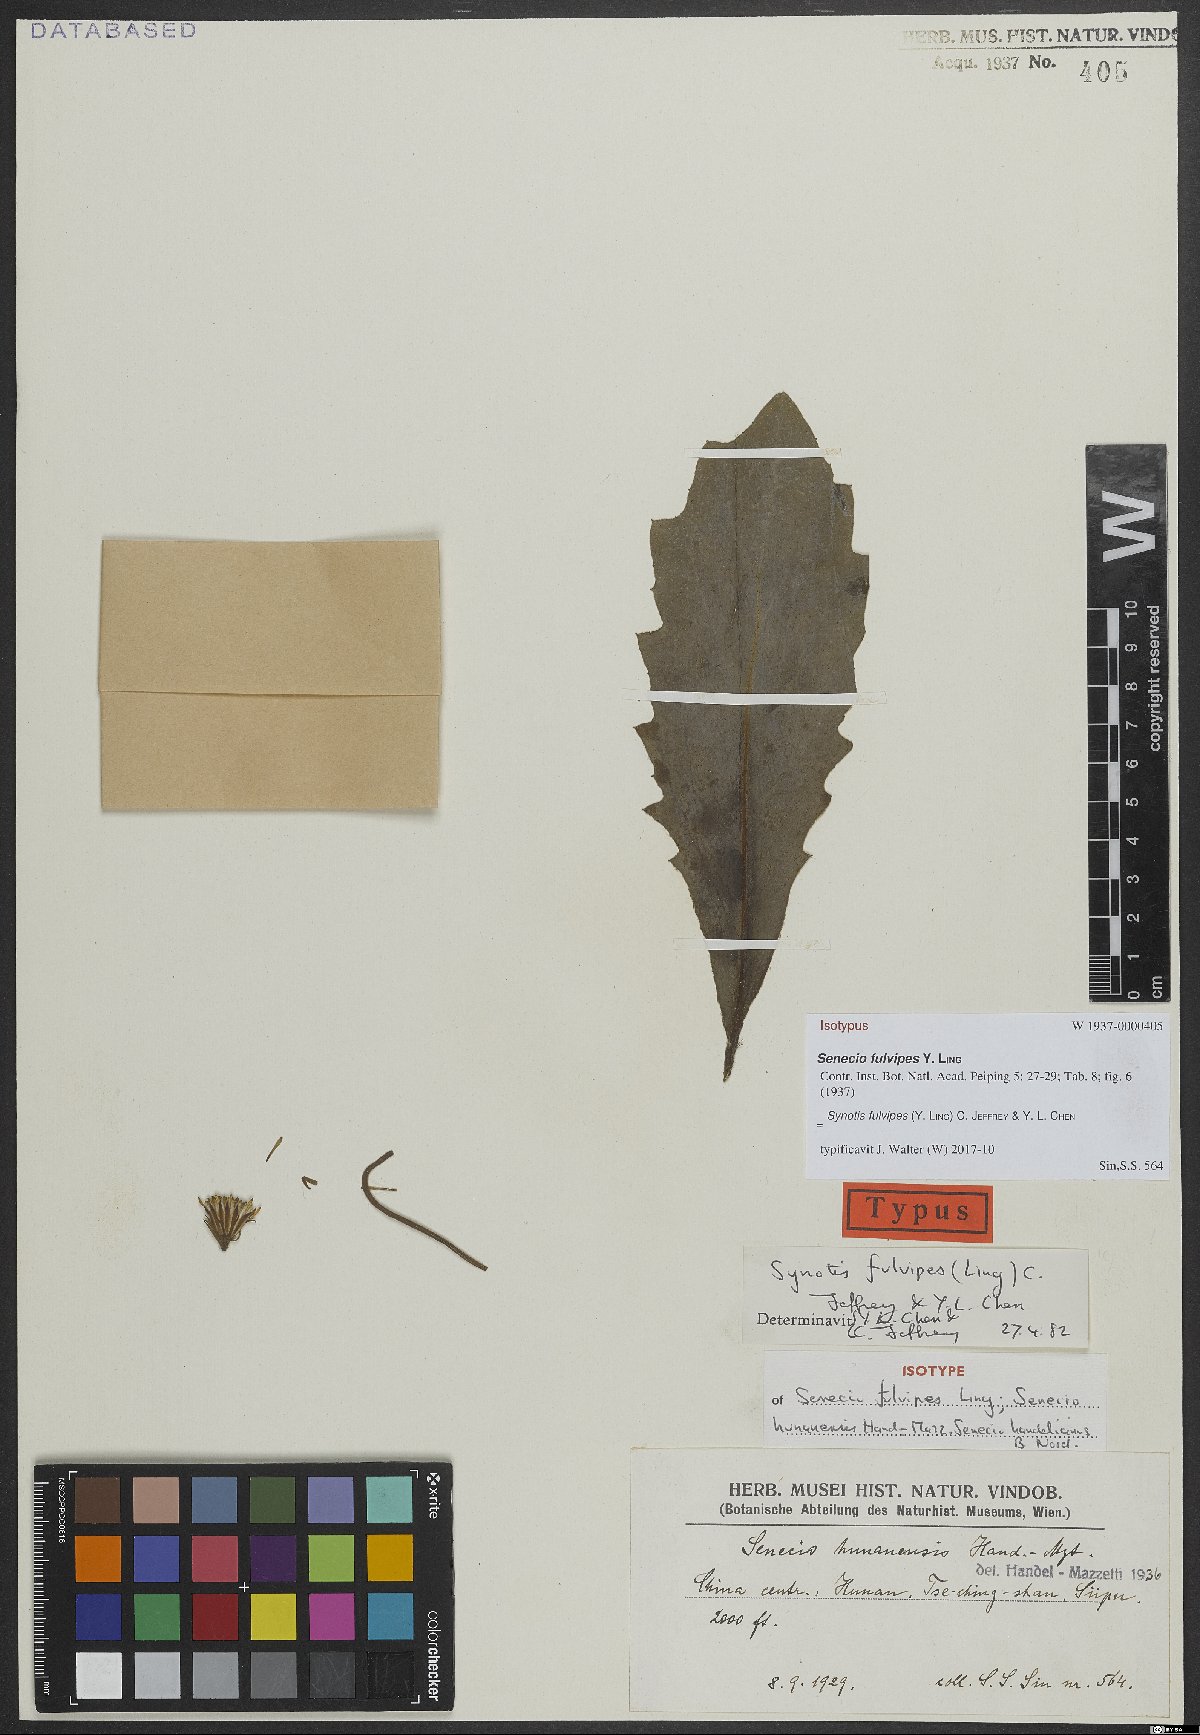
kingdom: Plantae
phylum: Tracheophyta
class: Magnoliopsida
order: Asterales
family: Asteraceae
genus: Synotis
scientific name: Synotis fulvipes
